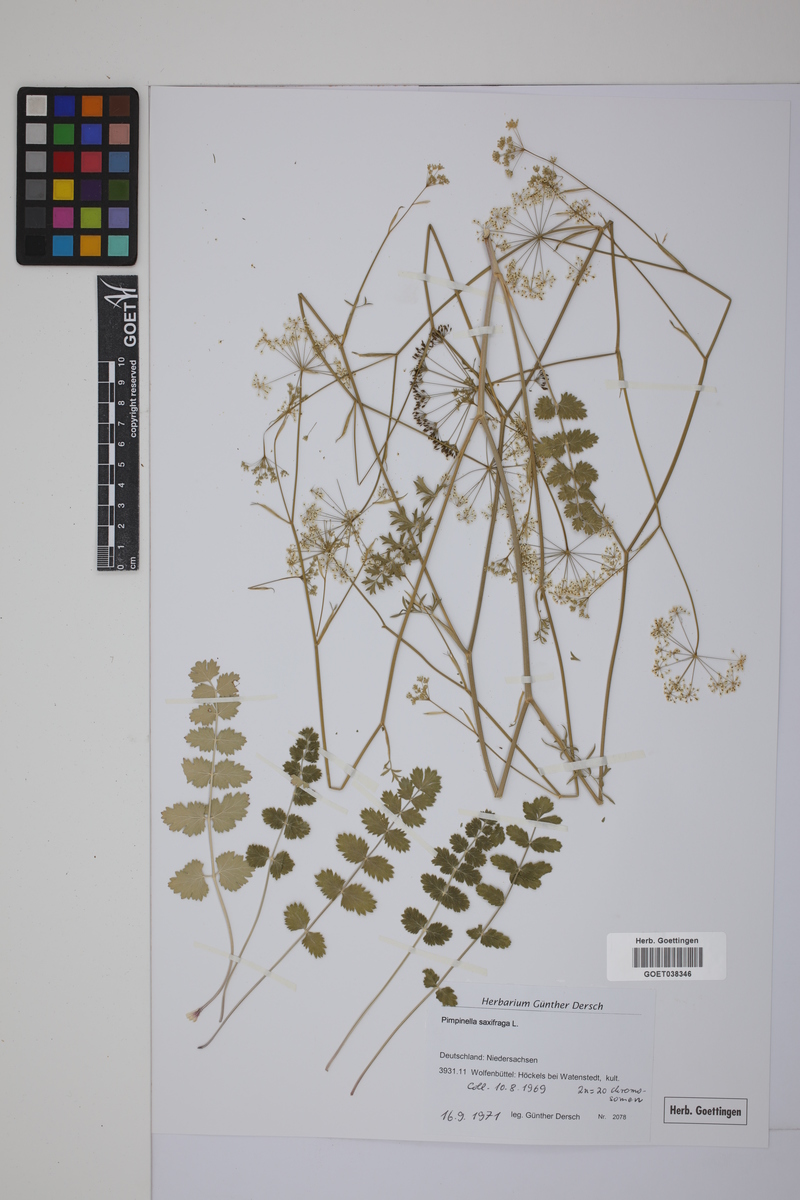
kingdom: Plantae
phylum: Tracheophyta
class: Magnoliopsida
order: Apiales
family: Apiaceae
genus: Pimpinella
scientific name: Pimpinella saxifraga
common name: Burnet-saxifrage
